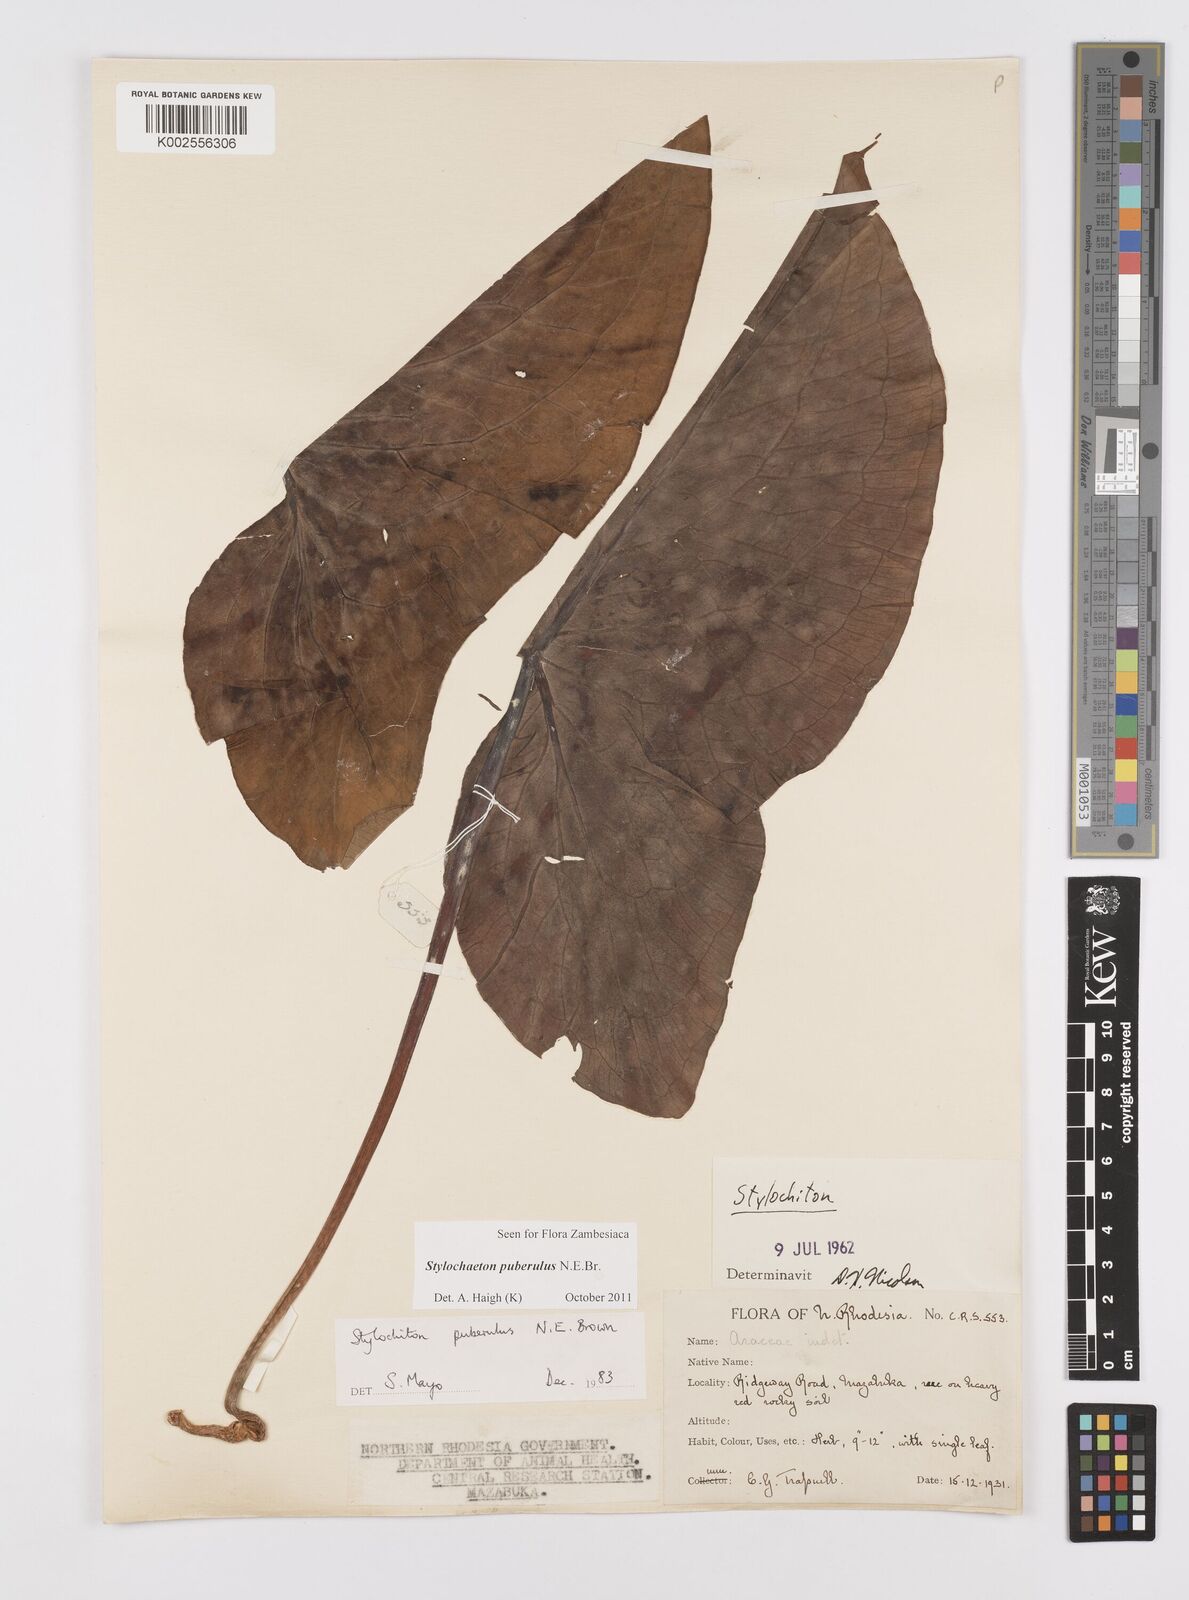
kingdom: Plantae
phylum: Tracheophyta
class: Liliopsida
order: Alismatales
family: Araceae
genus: Stylochaeton
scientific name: Stylochaeton puberulum
